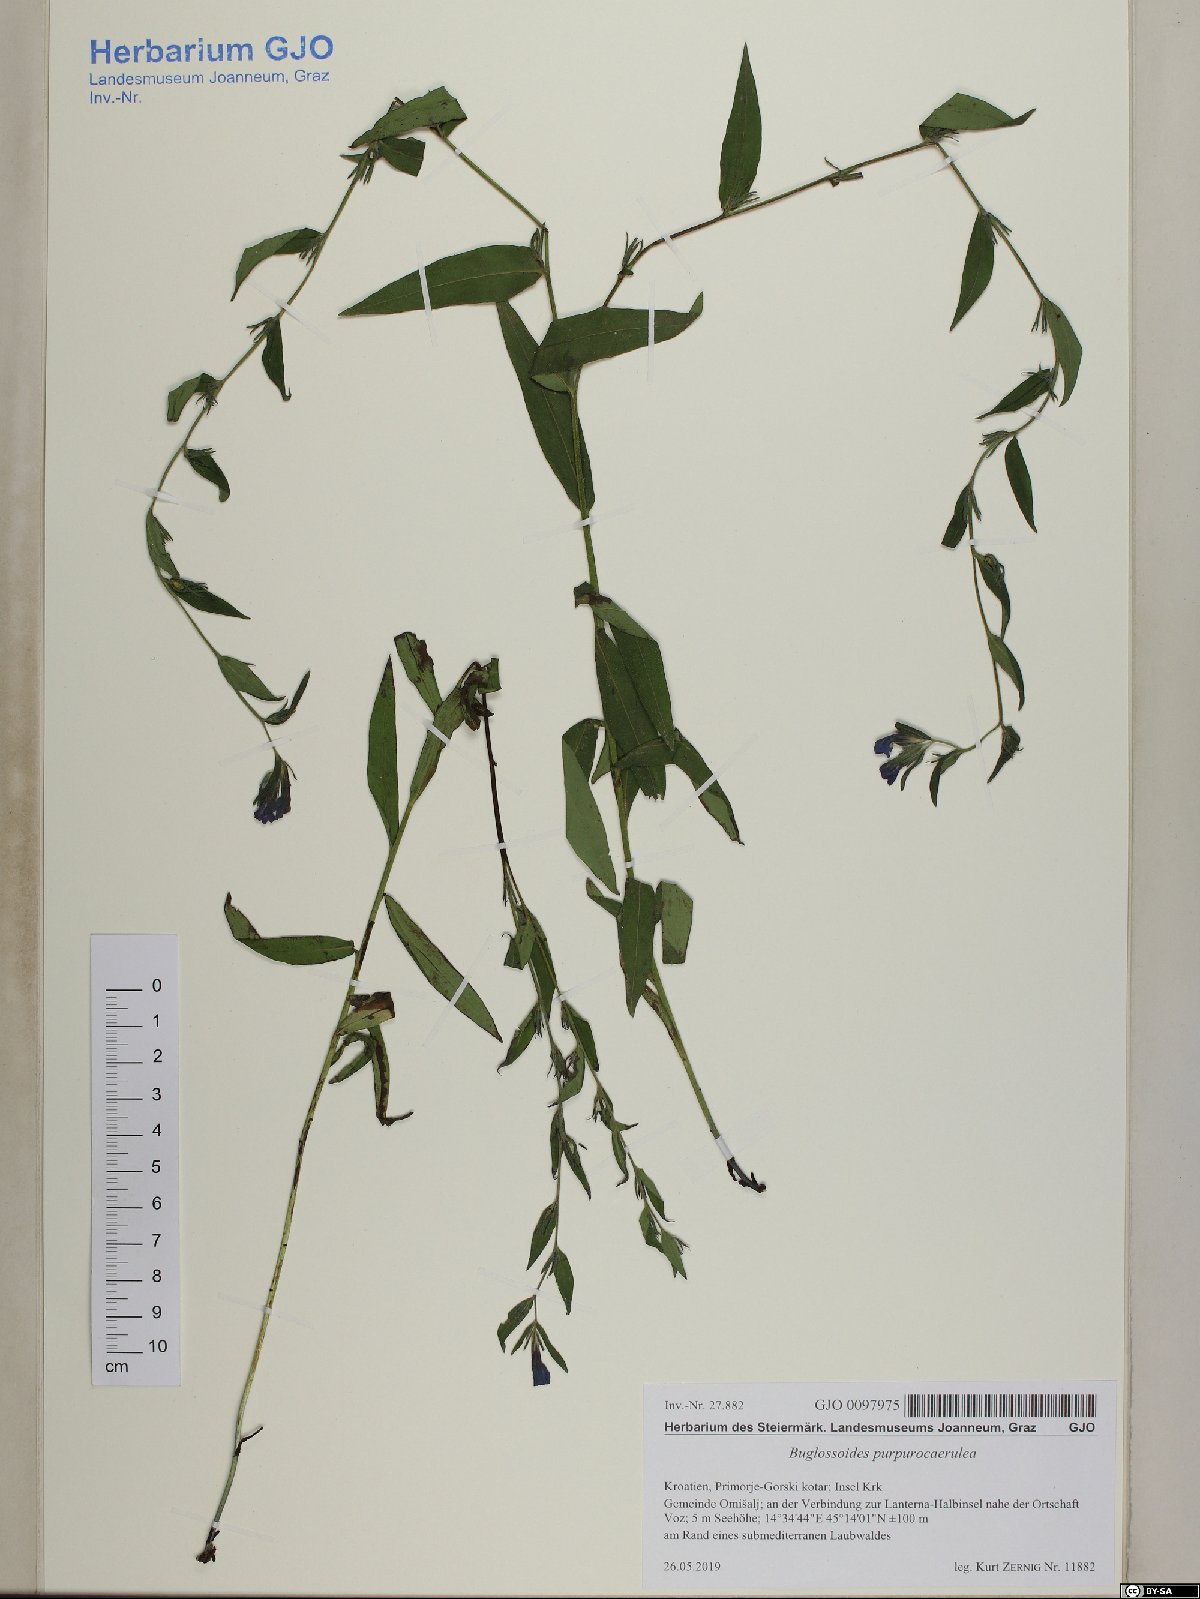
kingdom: Plantae
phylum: Tracheophyta
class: Magnoliopsida
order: Boraginales
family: Boraginaceae
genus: Aegonychon
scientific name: Aegonychon purpurocaeruleum
